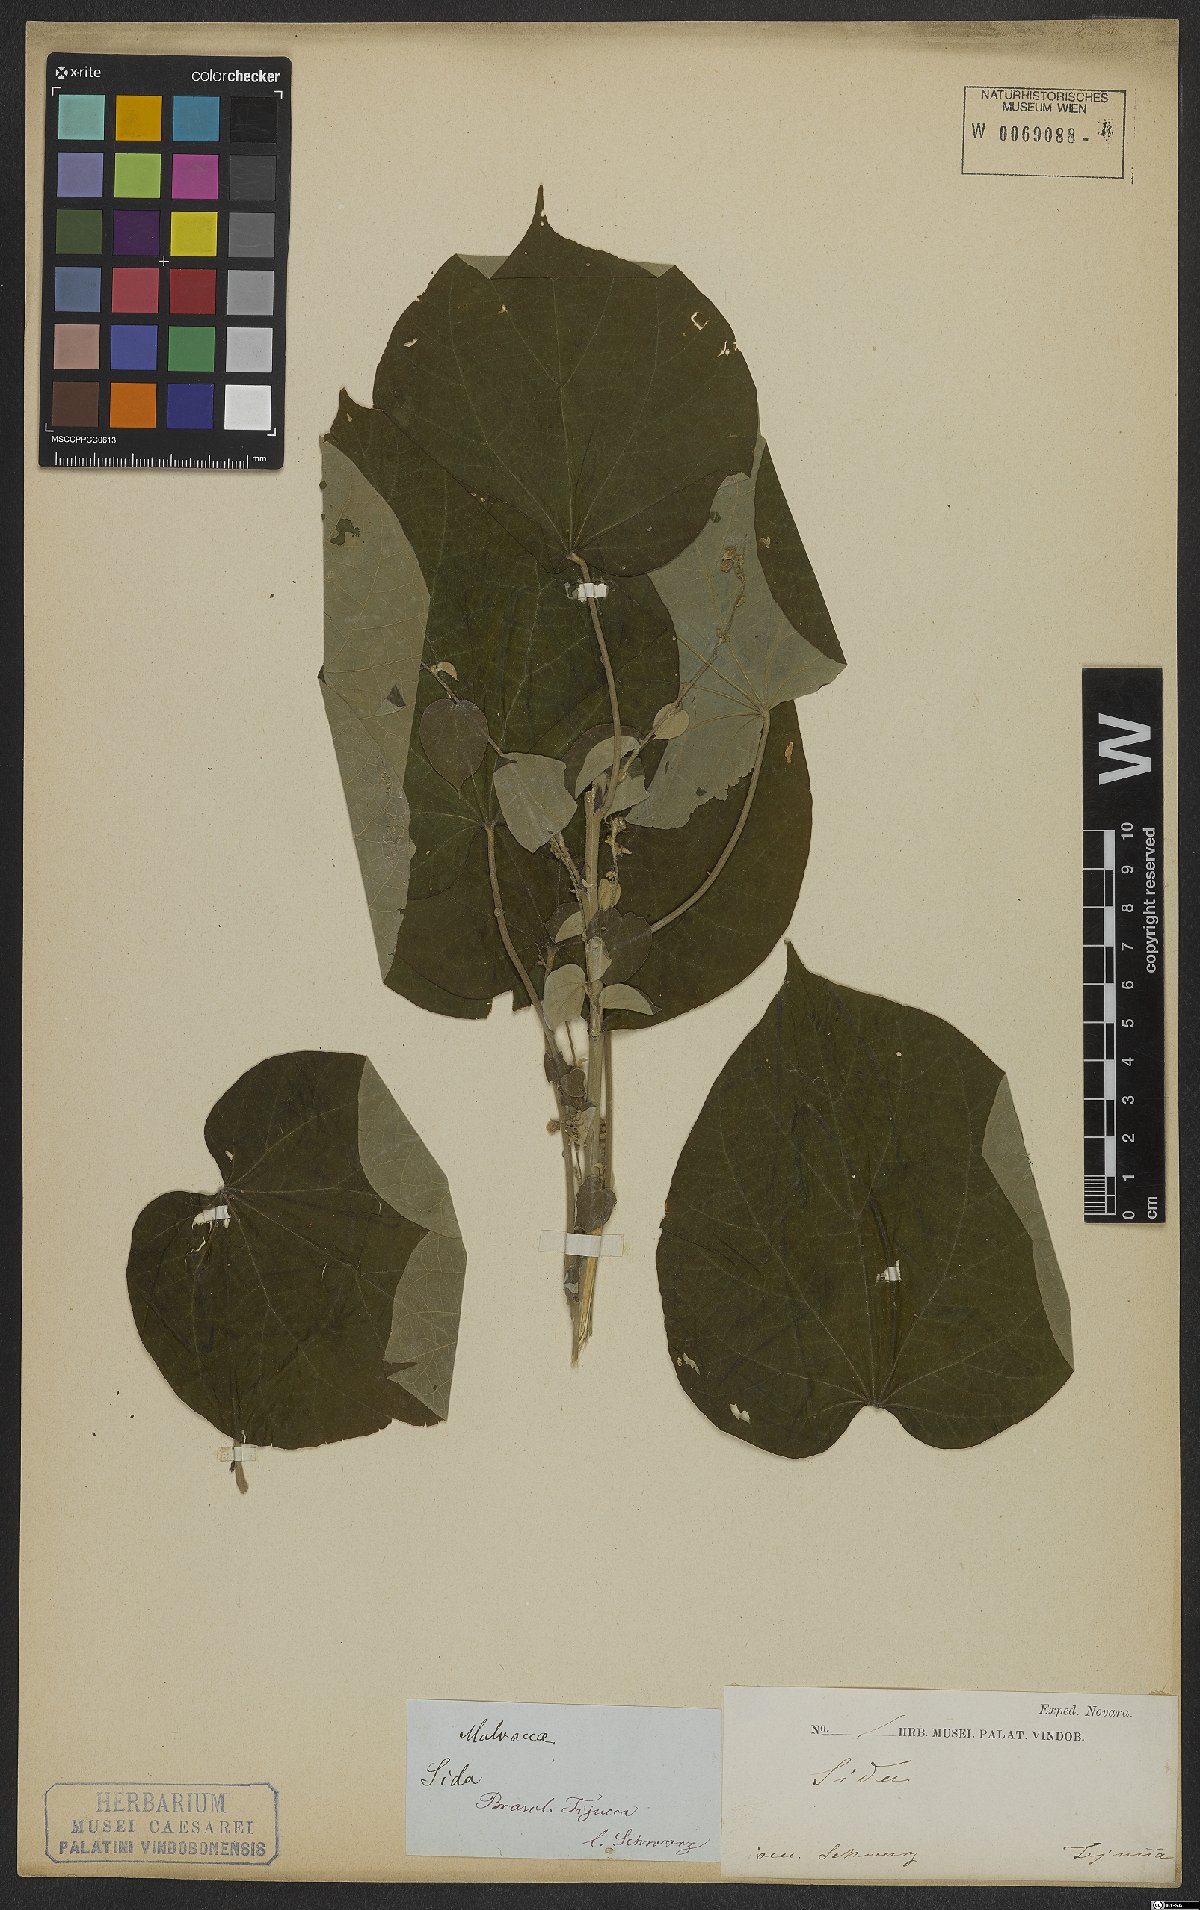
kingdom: Plantae
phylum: Tracheophyta
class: Magnoliopsida
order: Malvales
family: Malvaceae
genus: Callianthe
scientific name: Callianthe bedfordiana
